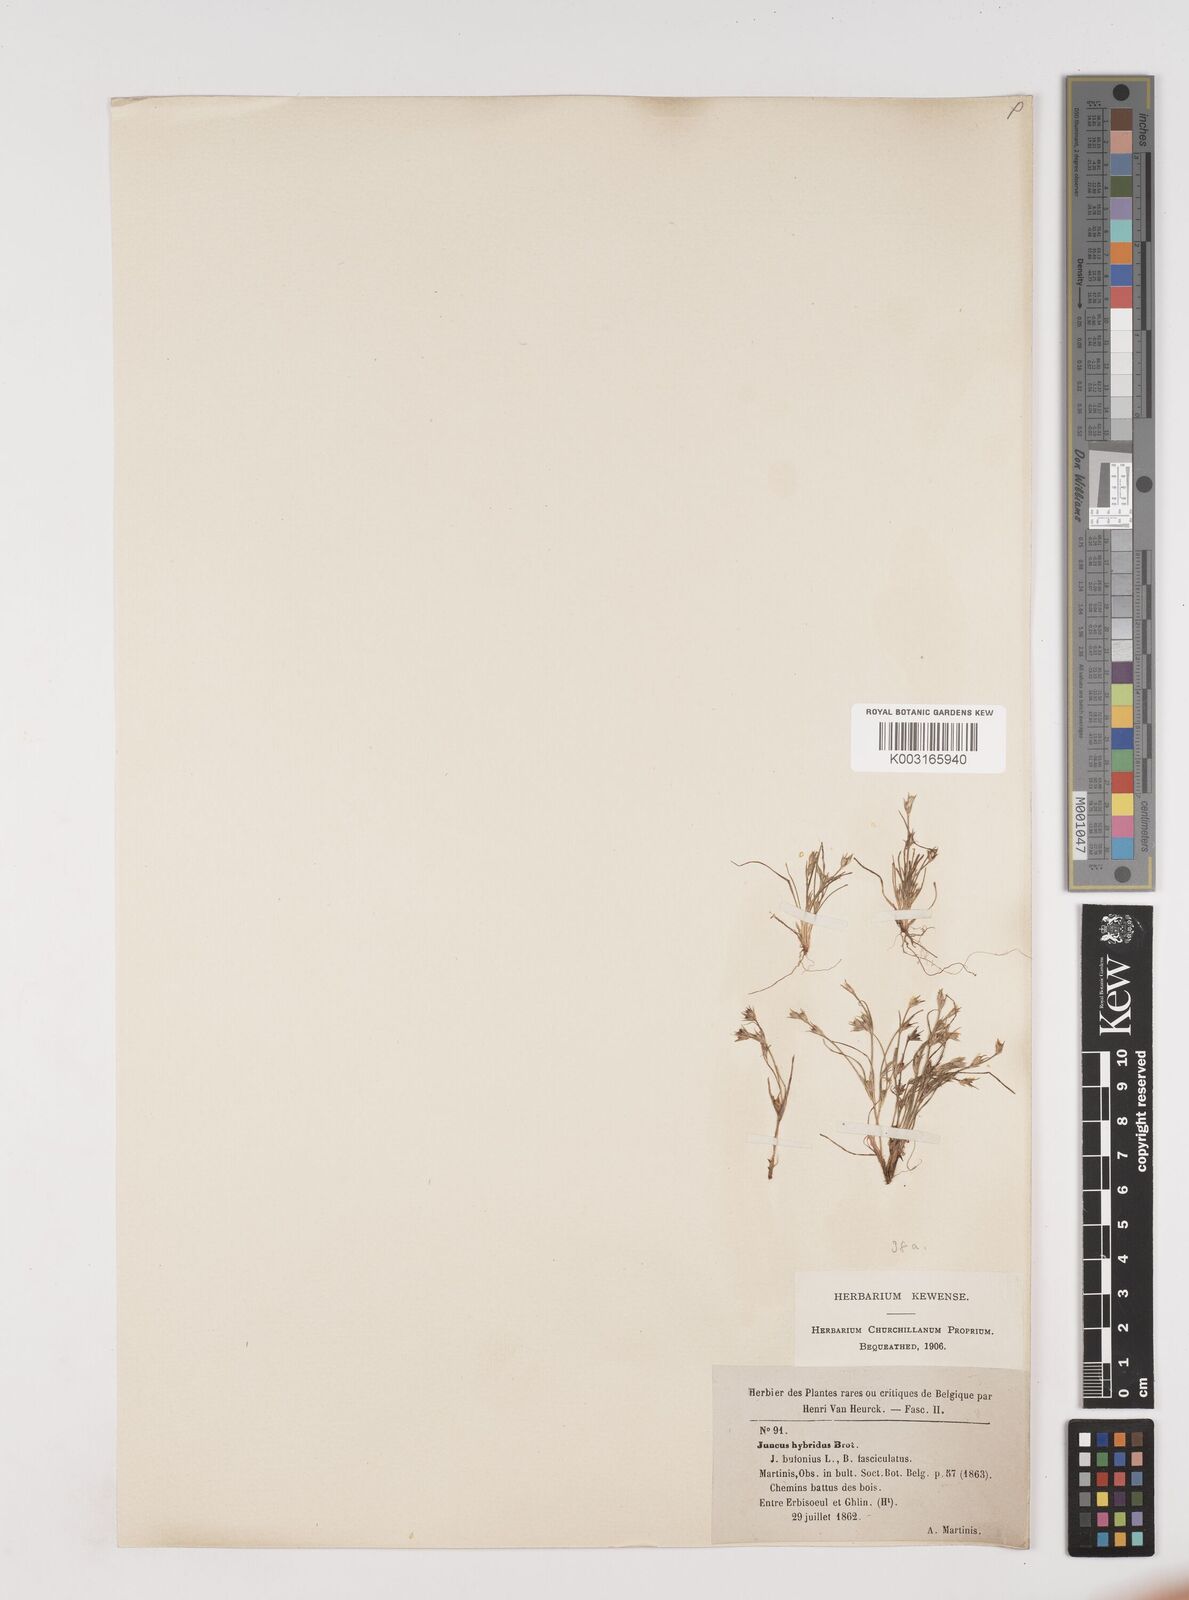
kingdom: Plantae
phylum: Tracheophyta
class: Liliopsida
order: Poales
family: Juncaceae
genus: Juncus
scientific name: Juncus bufonius
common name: Toad rush
